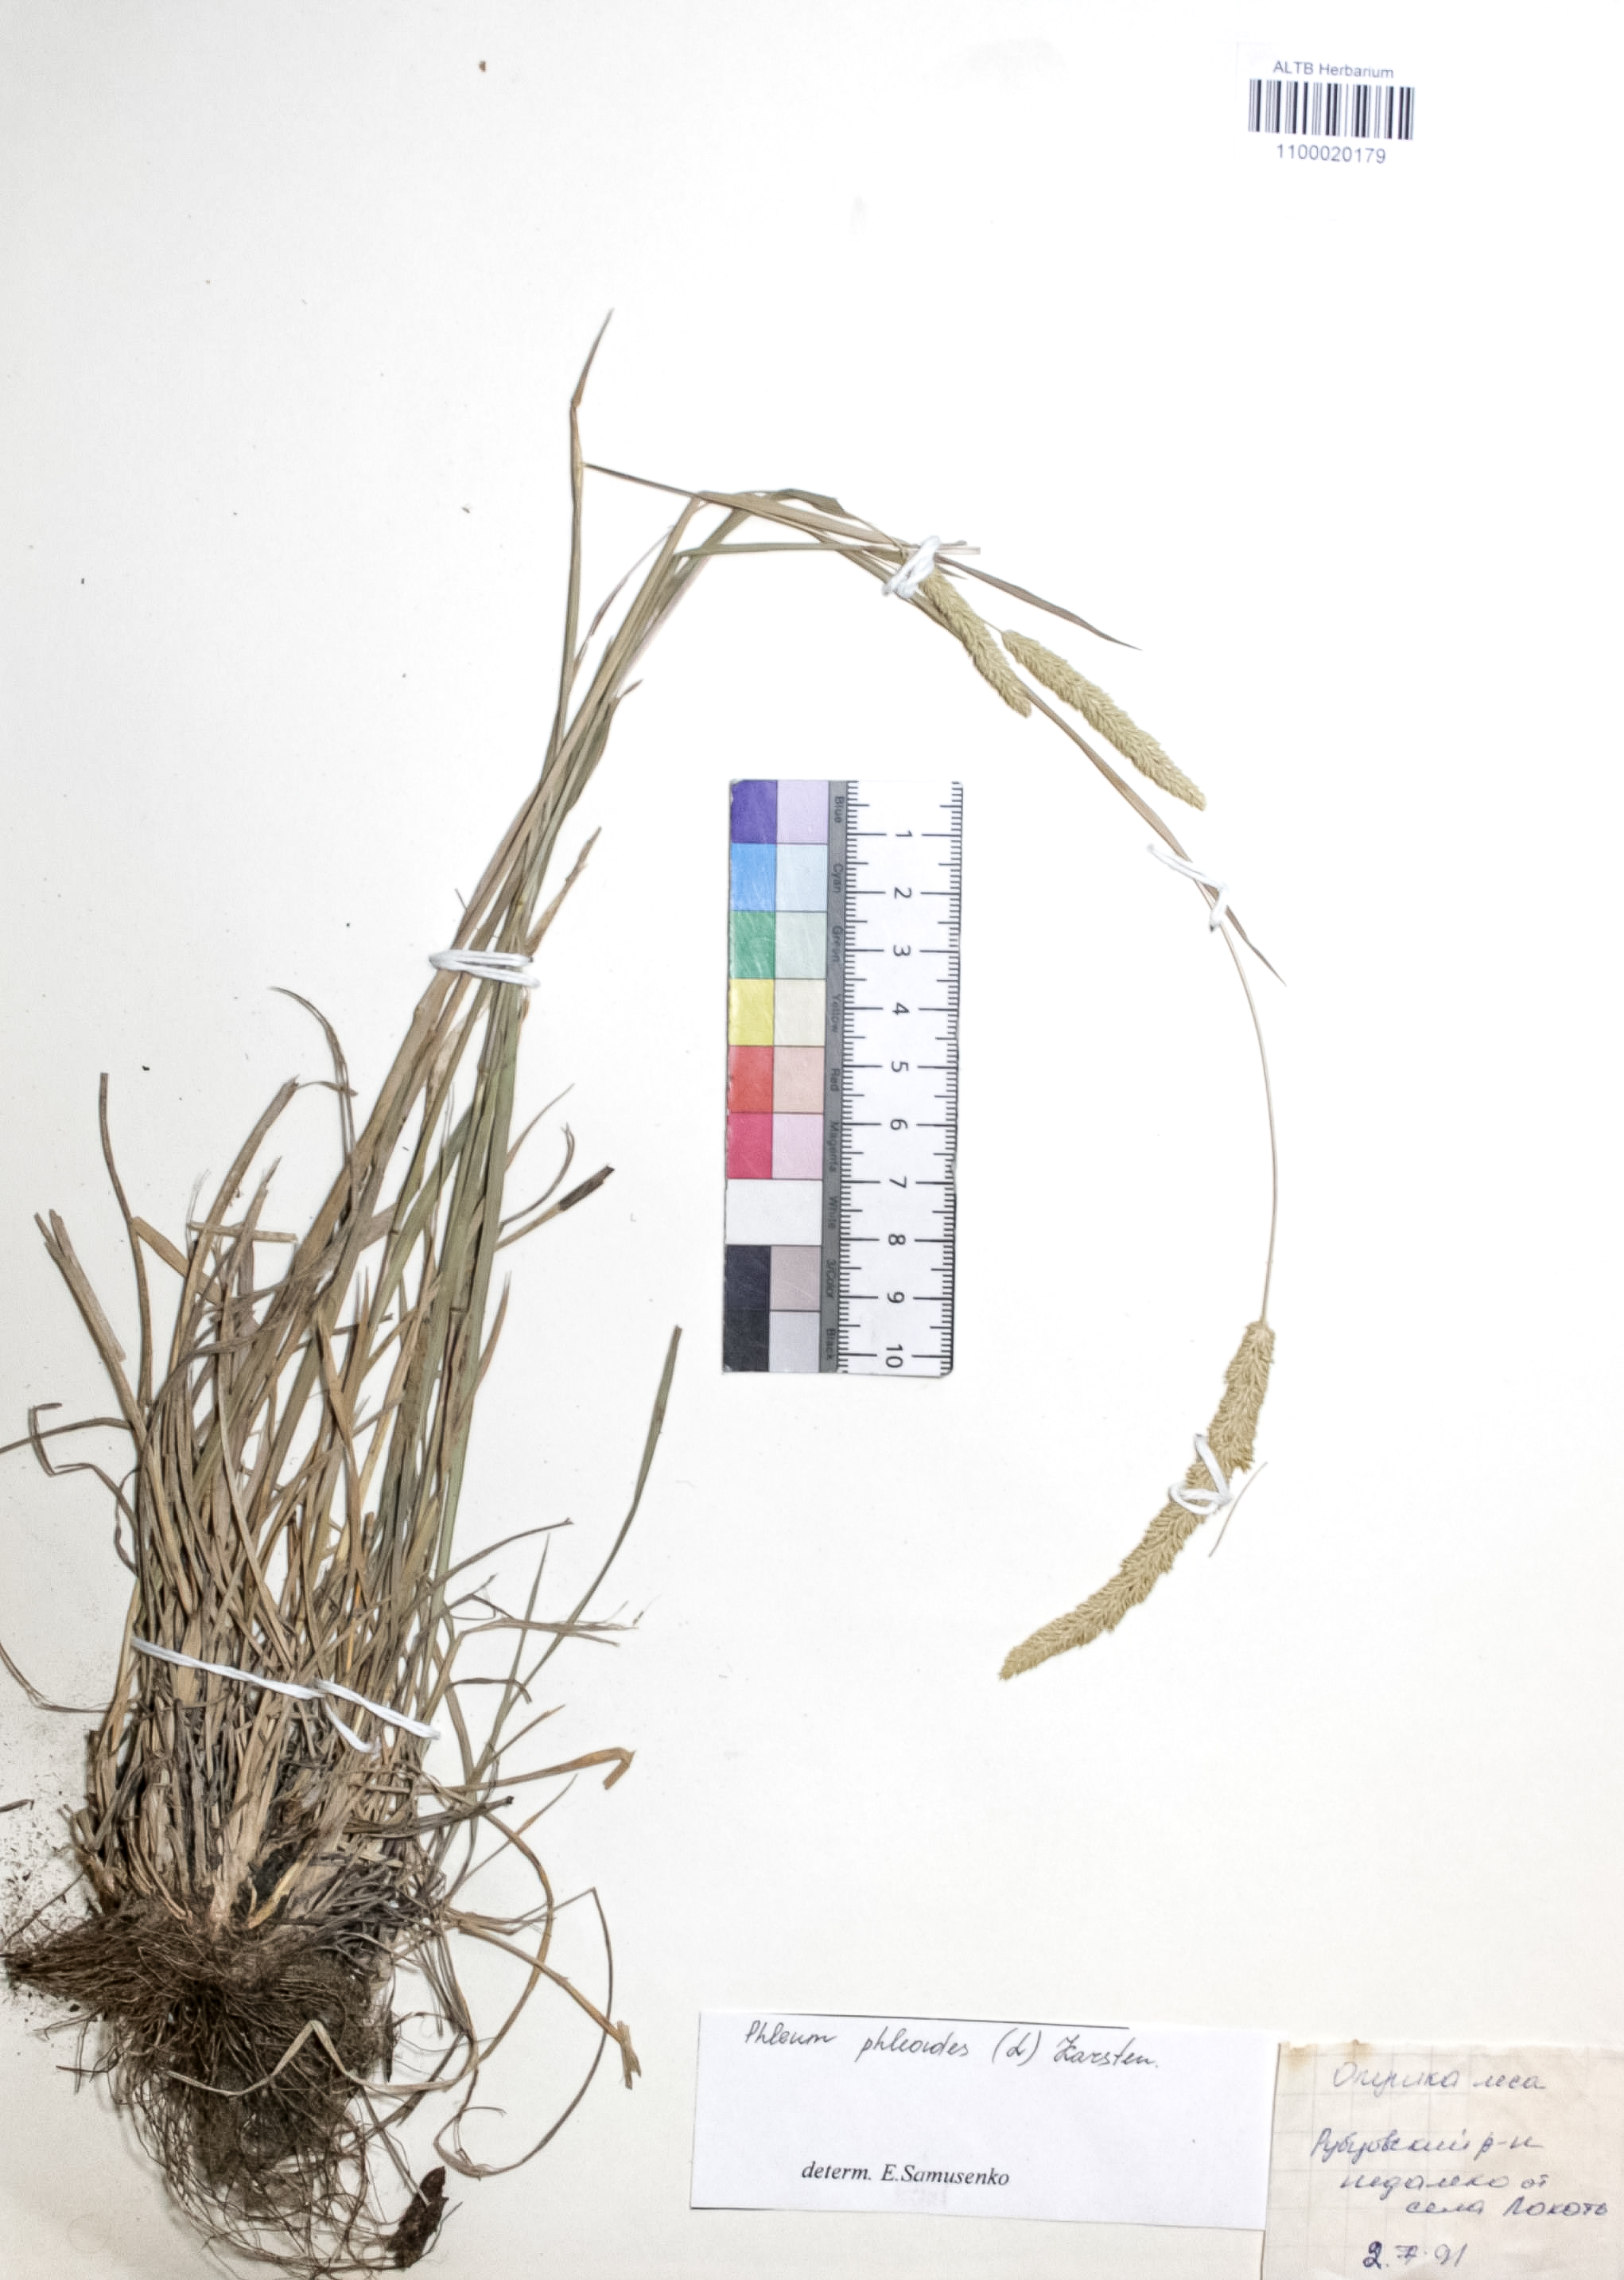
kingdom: Plantae
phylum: Tracheophyta
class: Liliopsida
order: Poales
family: Poaceae
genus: Phleum
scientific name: Phleum phleoides
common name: Purple-stem cat's-tail
